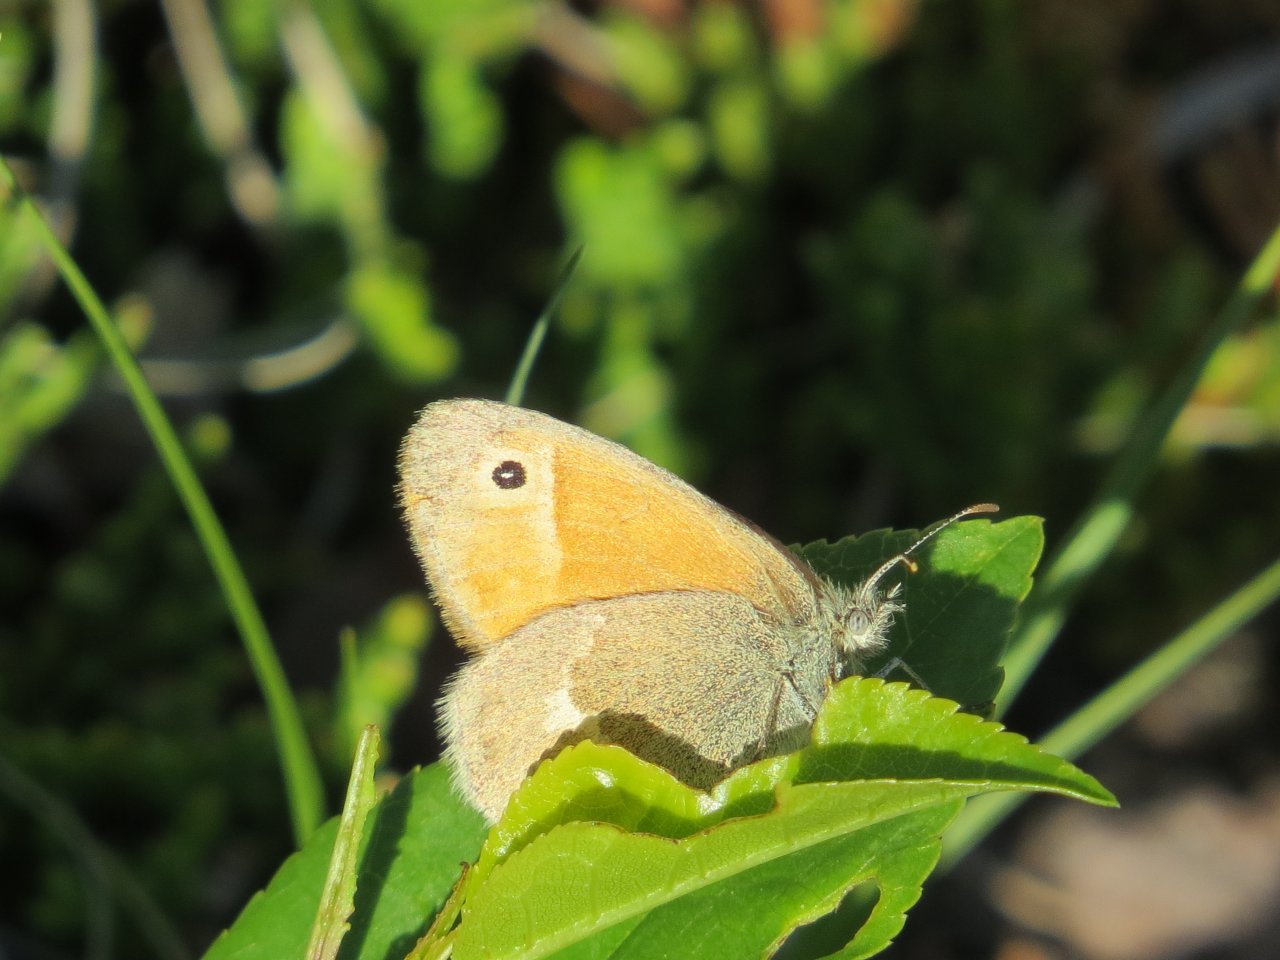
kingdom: Animalia
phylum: Arthropoda
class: Insecta
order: Lepidoptera
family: Nymphalidae
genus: Coenonympha
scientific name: Coenonympha tullia
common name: Large Heath
